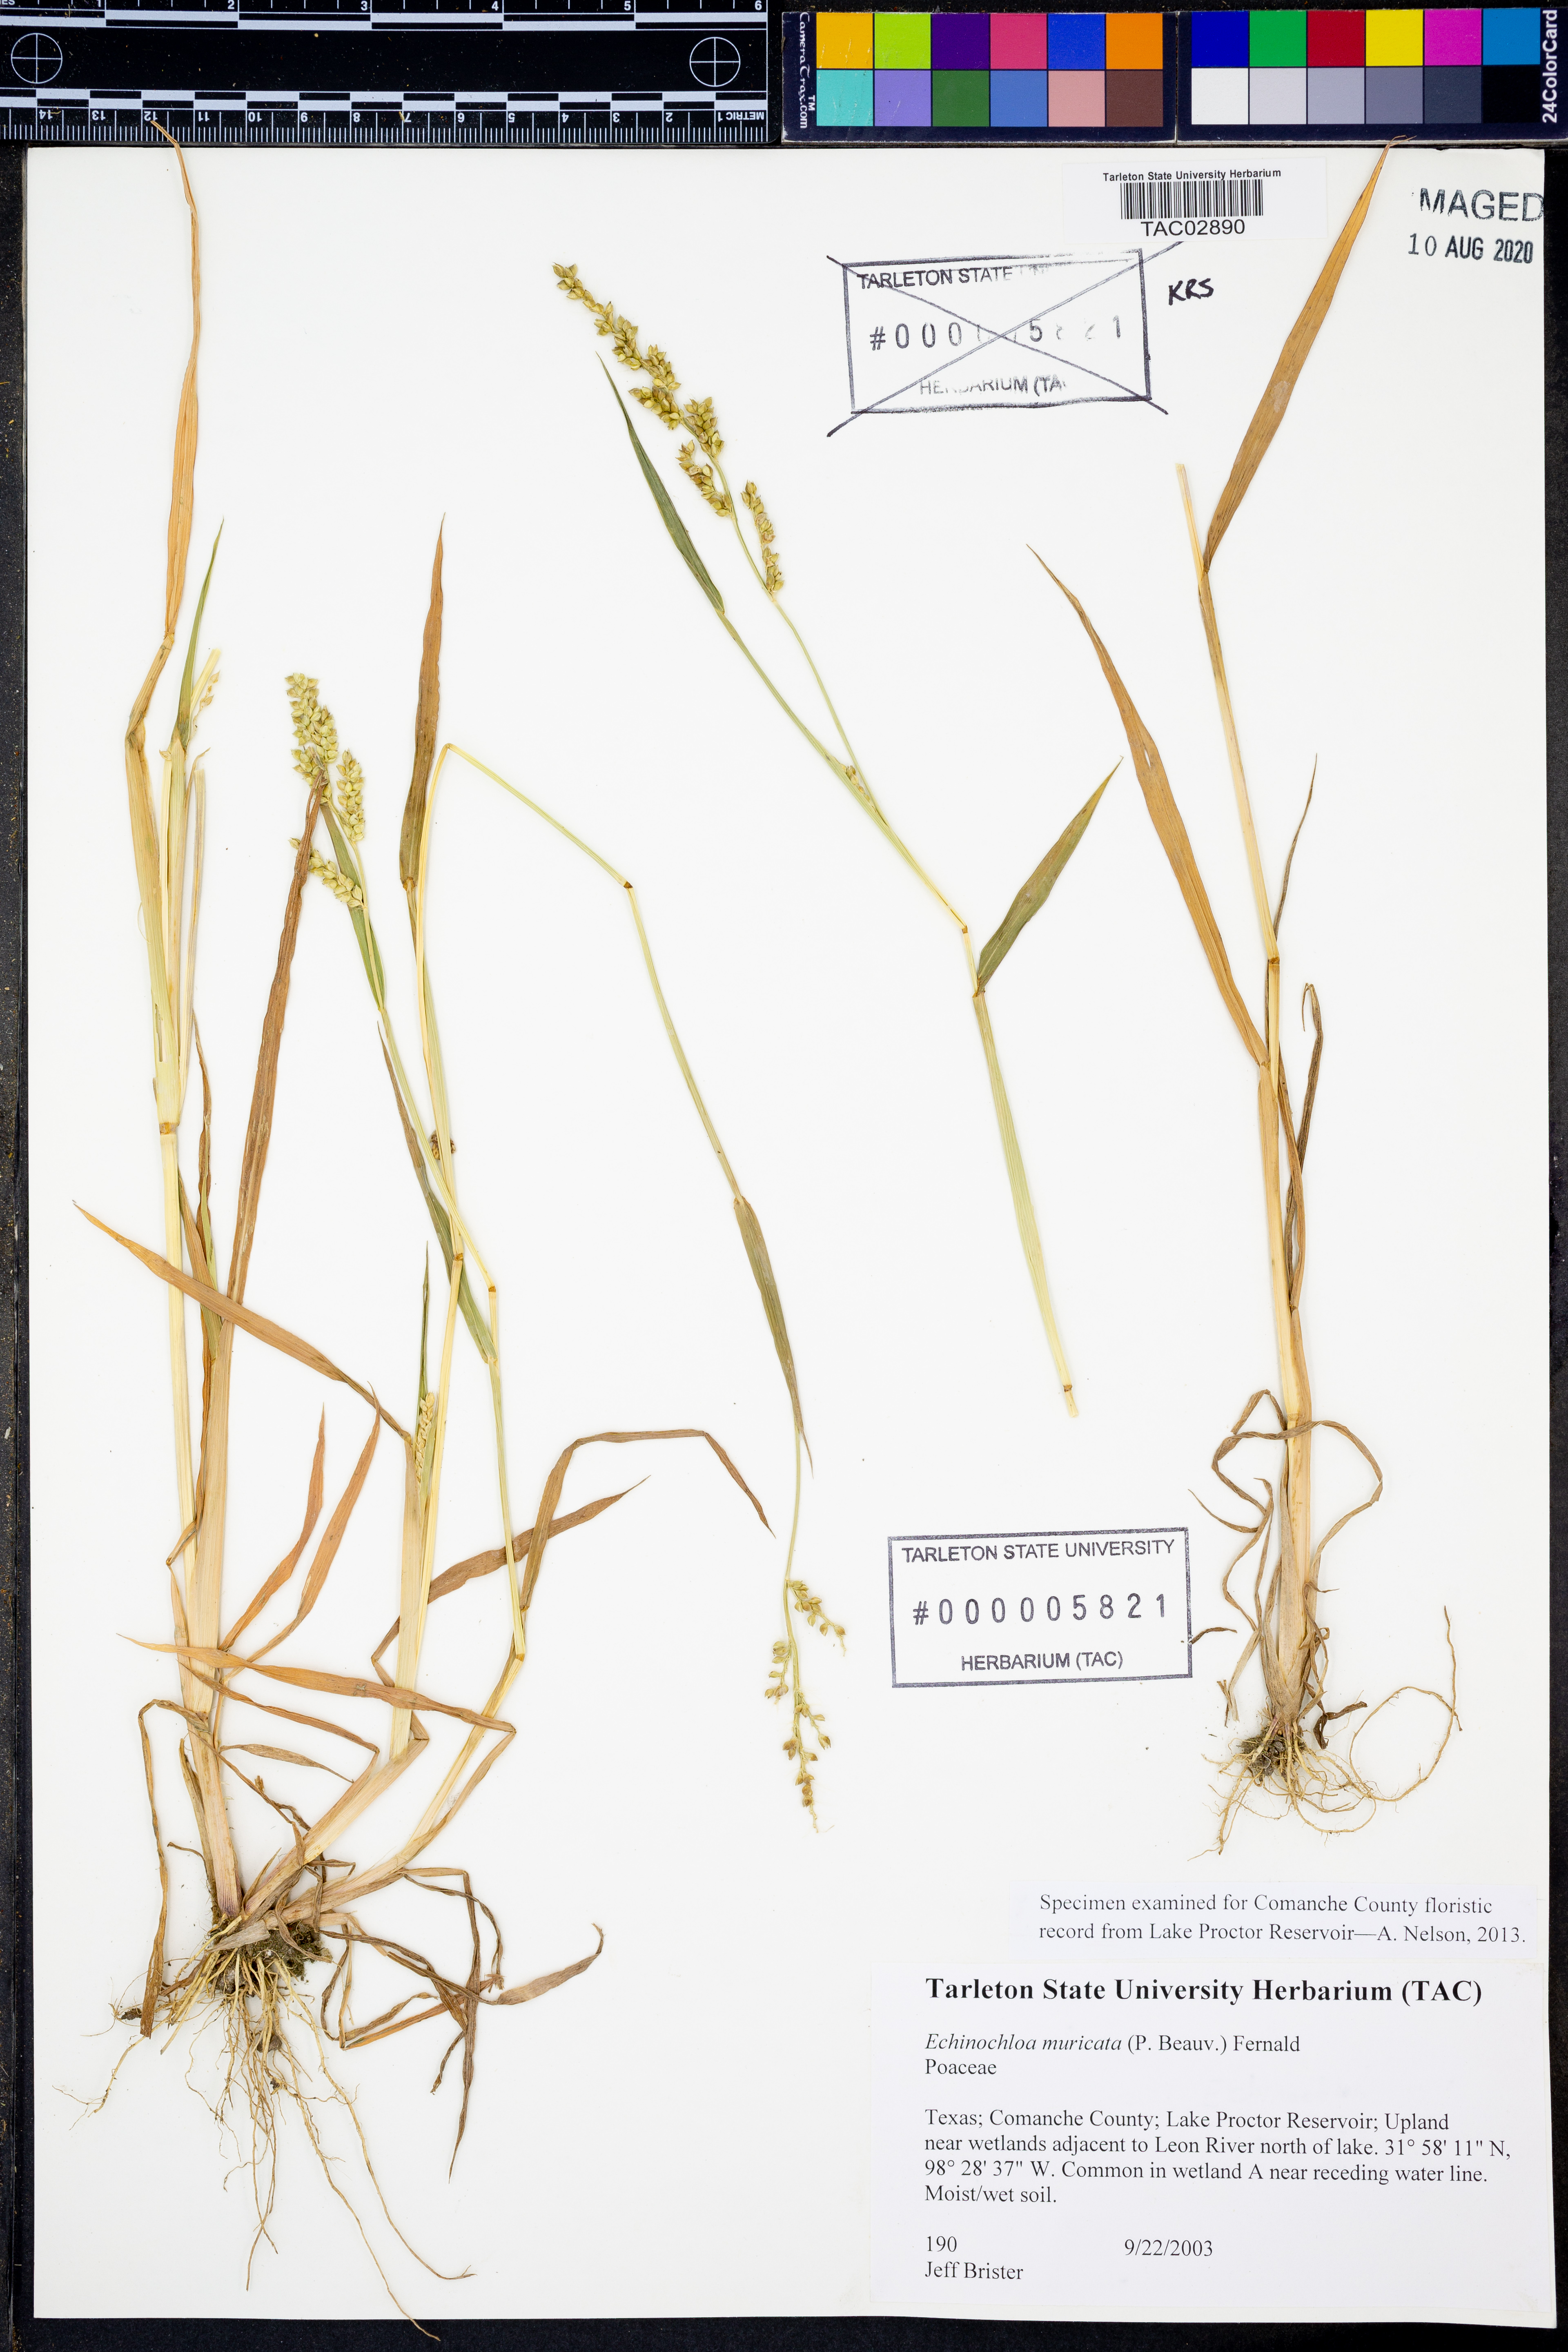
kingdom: Plantae
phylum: Tracheophyta
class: Liliopsida
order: Poales
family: Poaceae
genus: Echinochloa
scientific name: Echinochloa muricata
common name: American barnyard grass
